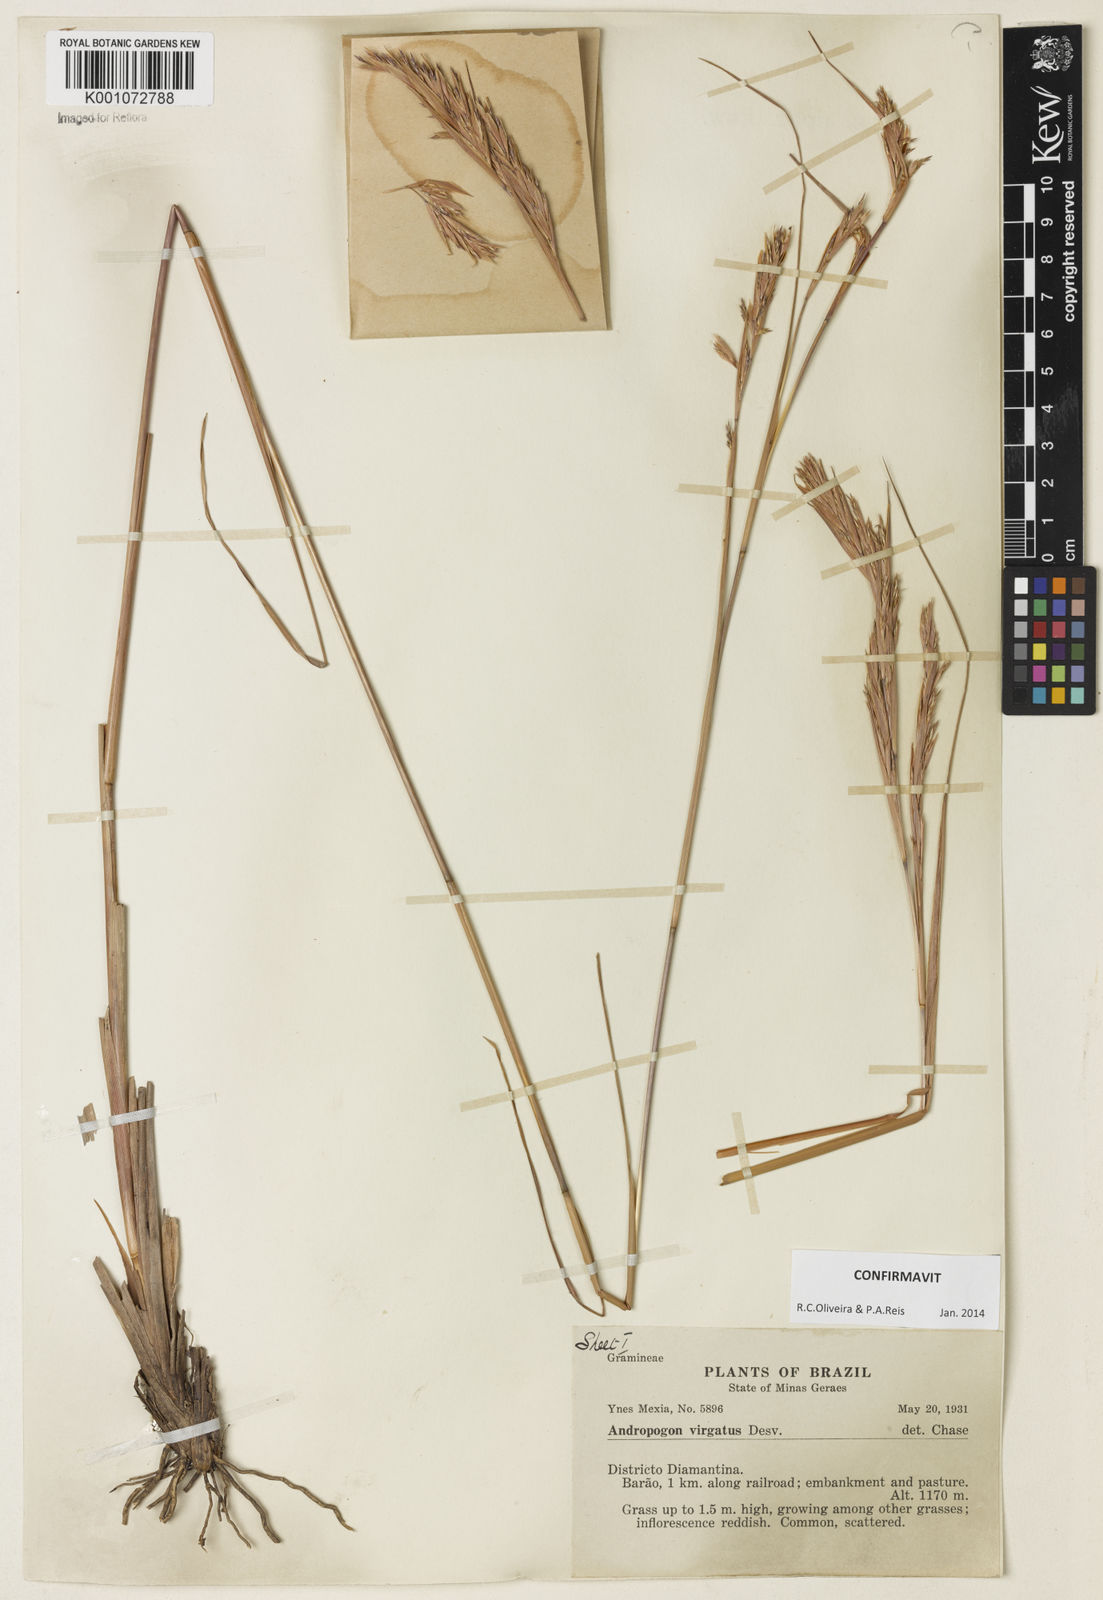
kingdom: Plantae
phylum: Tracheophyta
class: Liliopsida
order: Poales
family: Poaceae
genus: Andropogon
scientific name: Andropogon virgatus
